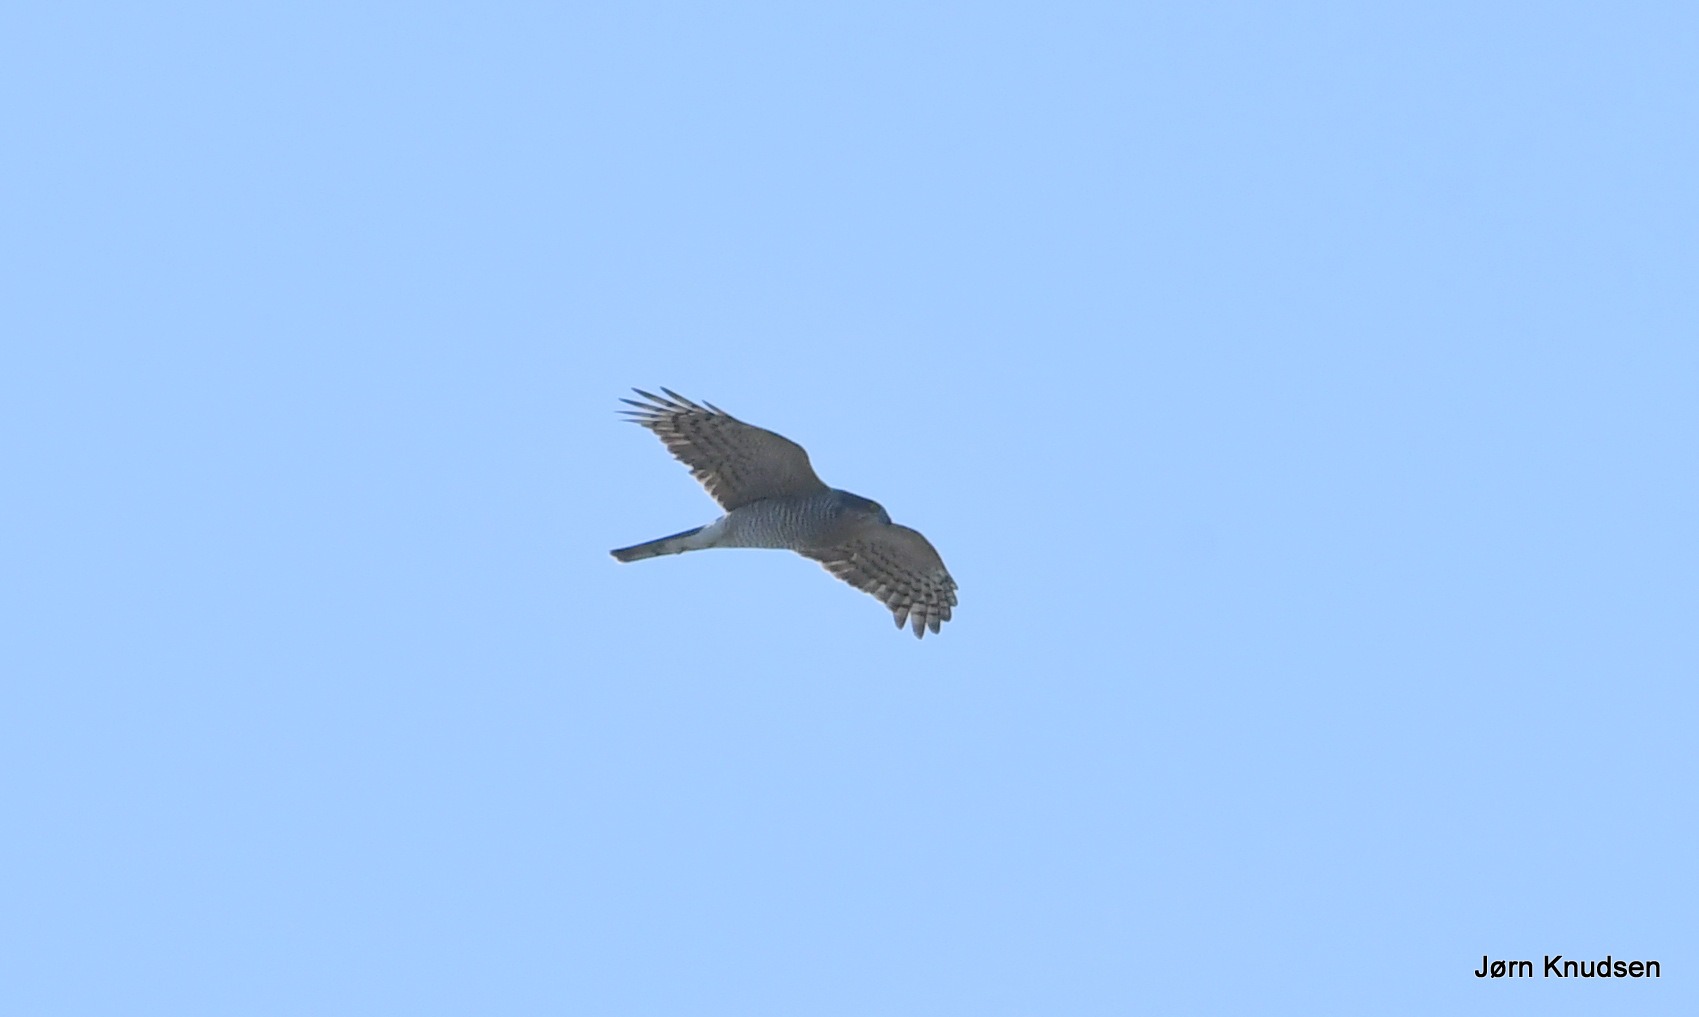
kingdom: Animalia
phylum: Chordata
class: Aves
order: Accipitriformes
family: Accipitridae
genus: Accipiter
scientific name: Accipiter nisus
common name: Spurvehøg
